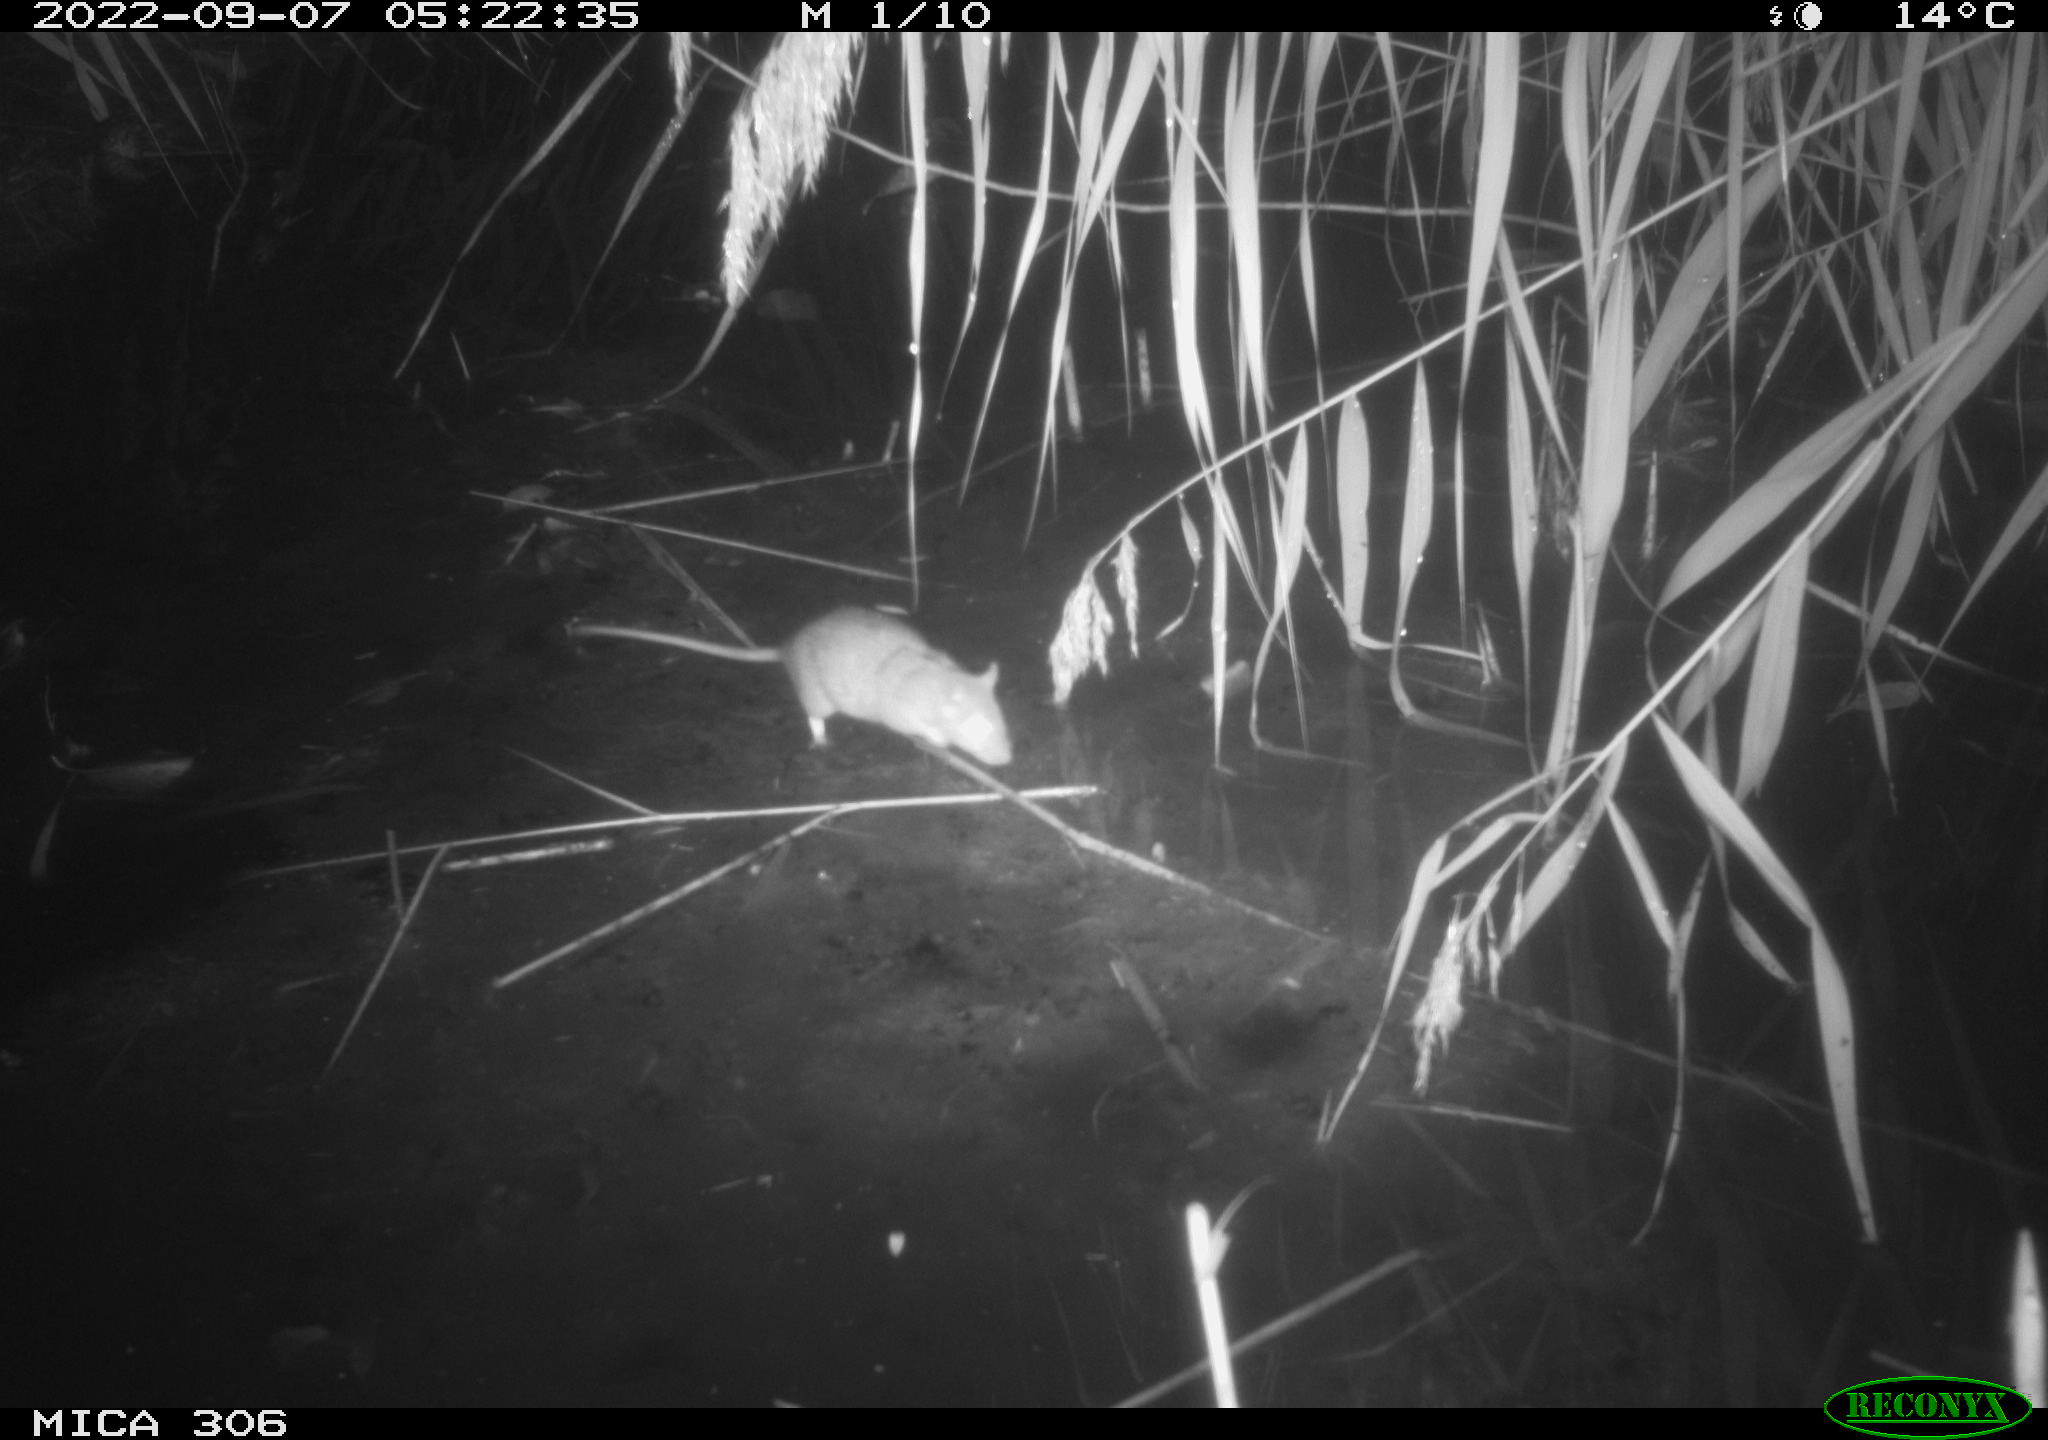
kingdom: Animalia
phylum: Chordata
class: Mammalia
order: Rodentia
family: Muridae
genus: Rattus
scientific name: Rattus norvegicus
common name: Brown rat
